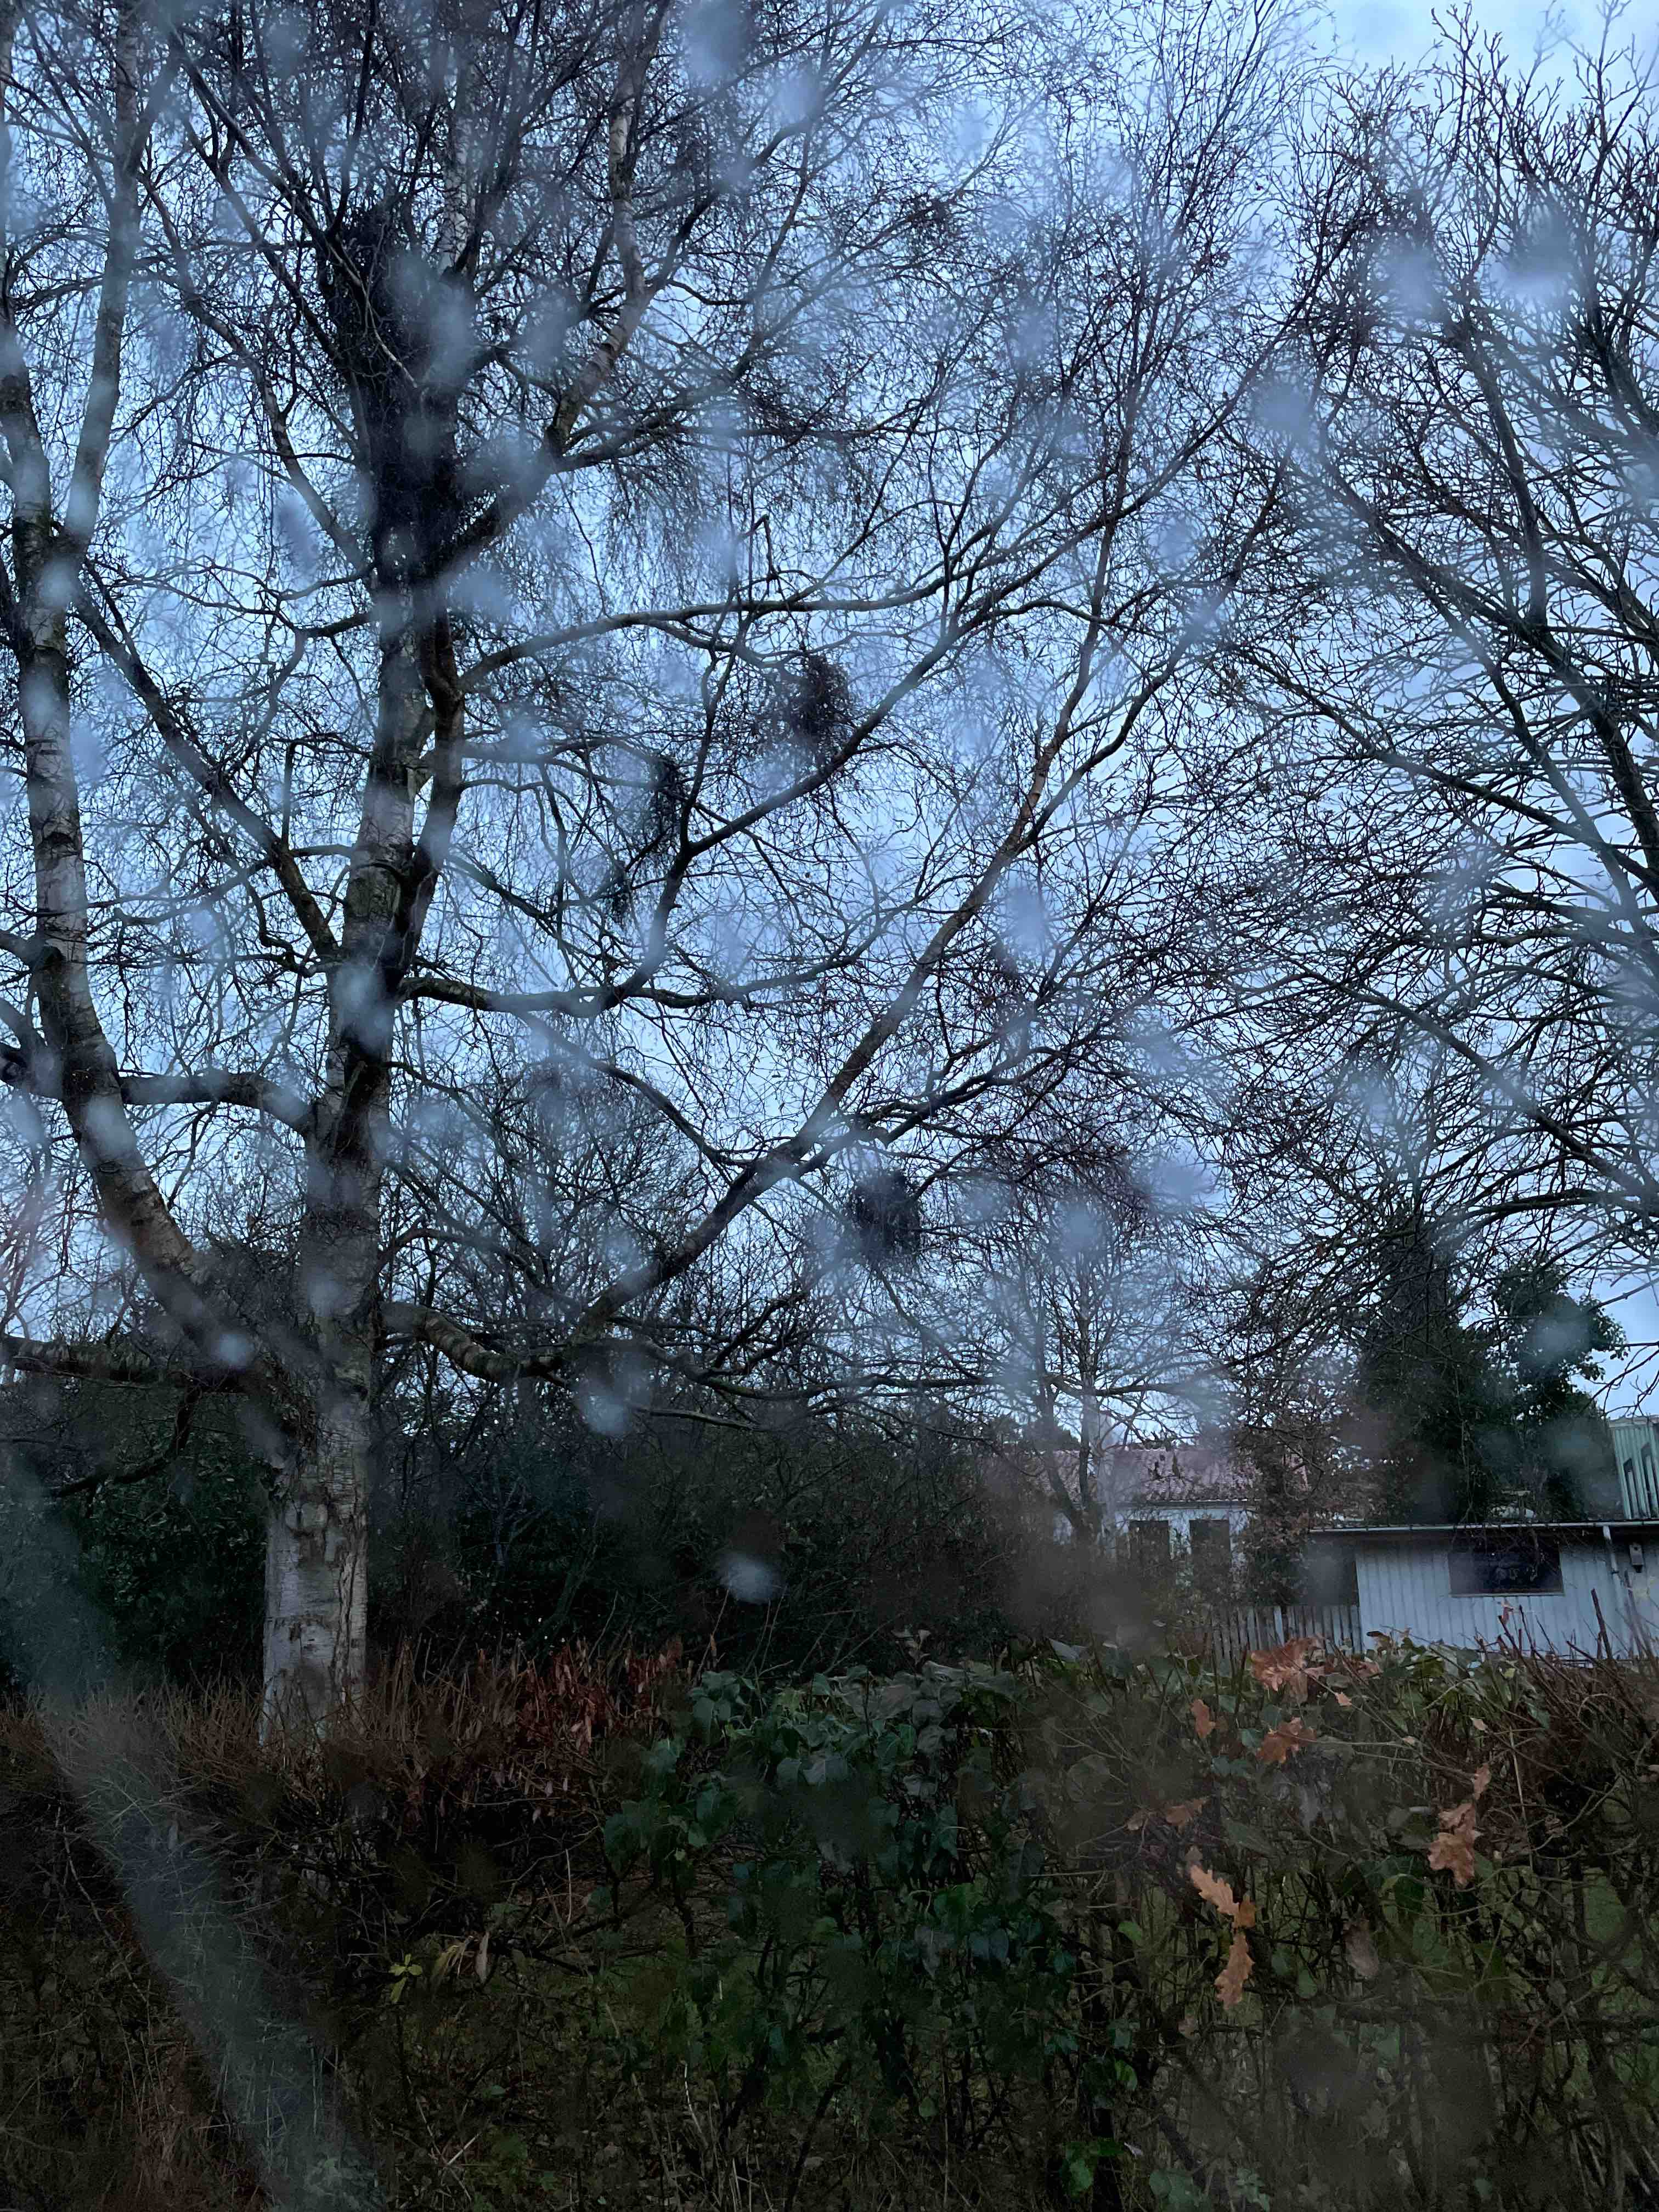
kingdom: Fungi
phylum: Ascomycota
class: Taphrinomycetes
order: Taphrinales
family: Taphrinaceae
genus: Taphrina
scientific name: Taphrina betulina
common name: hekse-sækdug
